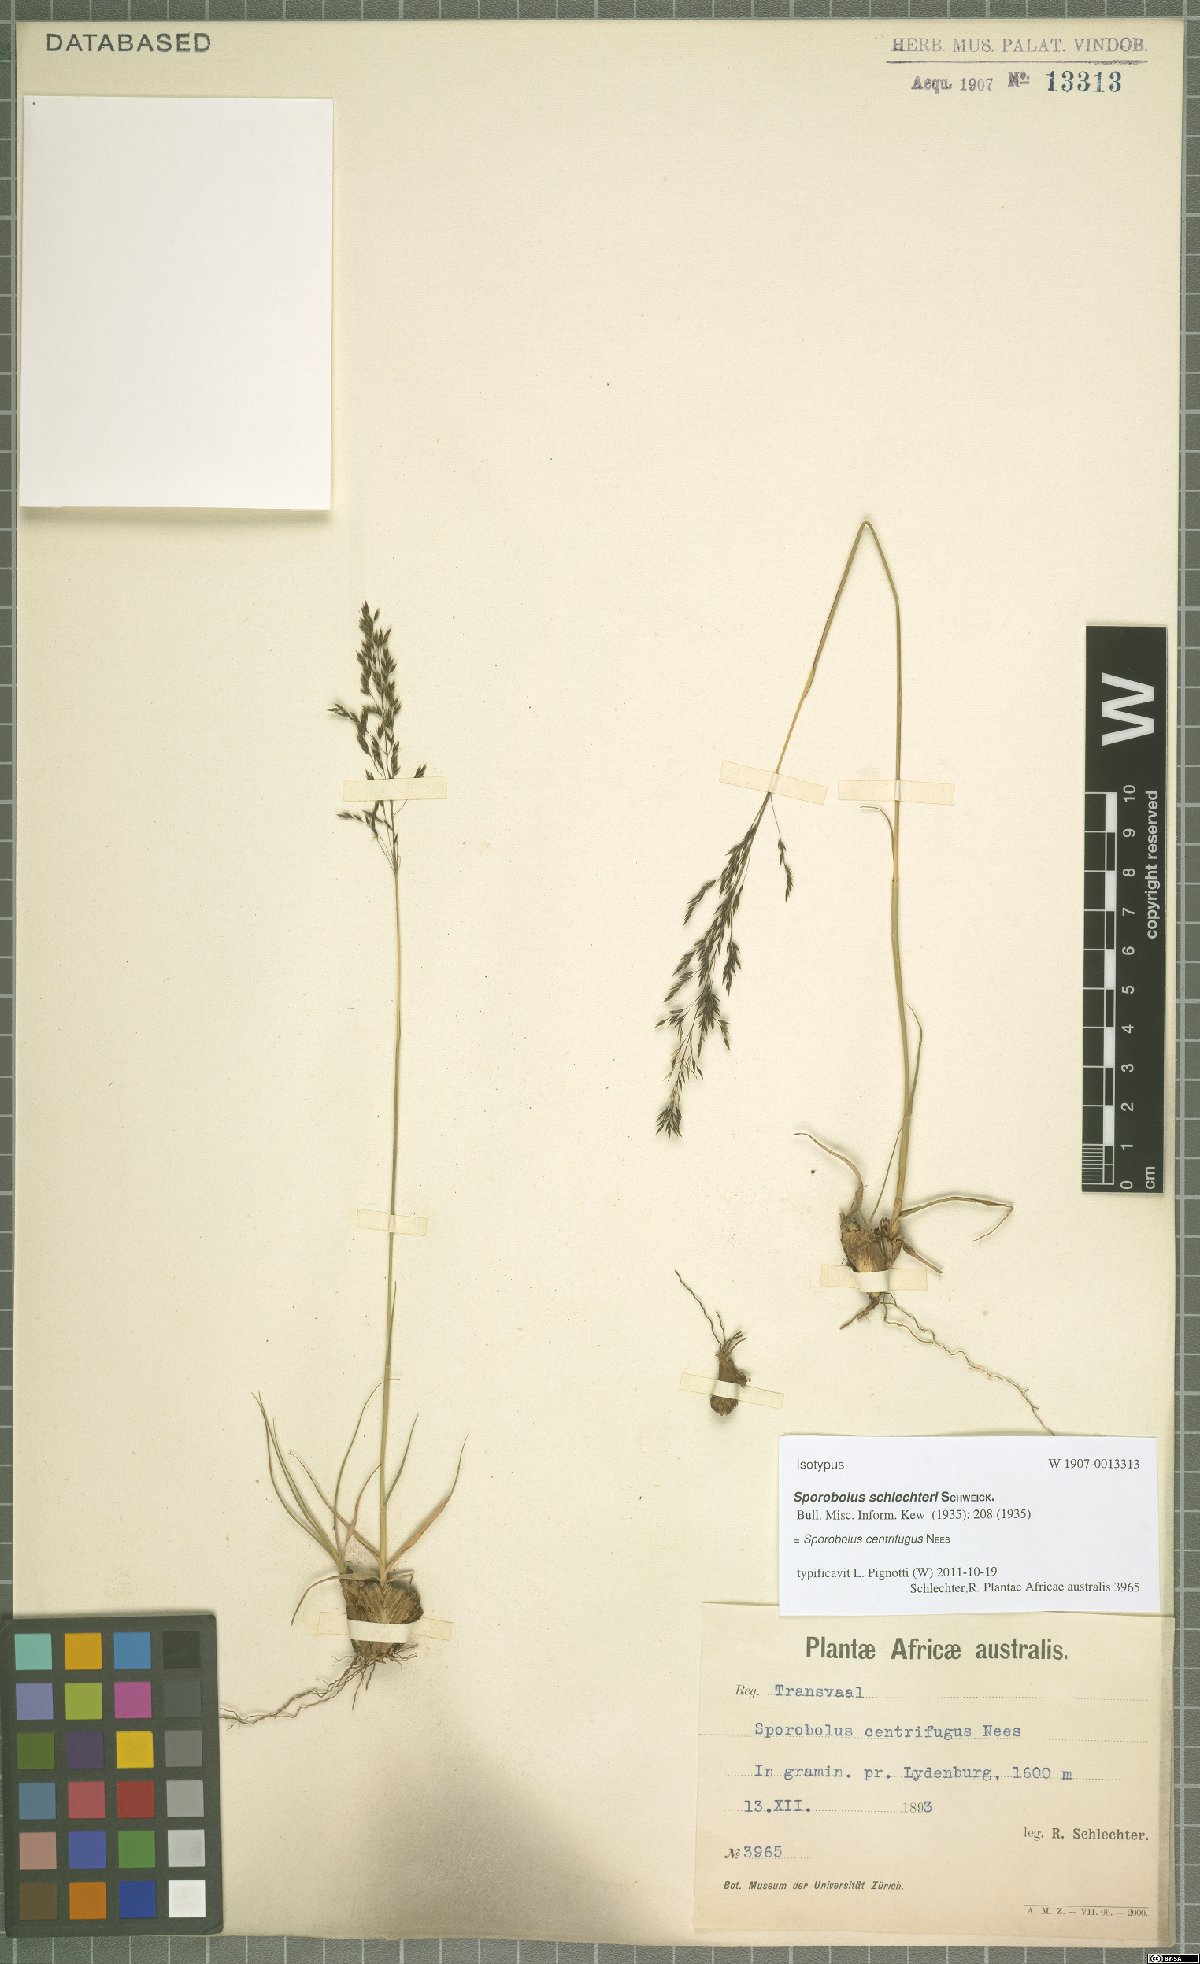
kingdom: Plantae
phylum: Tracheophyta
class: Liliopsida
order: Poales
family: Poaceae
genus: Sporobolus
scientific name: Sporobolus centrifugus
